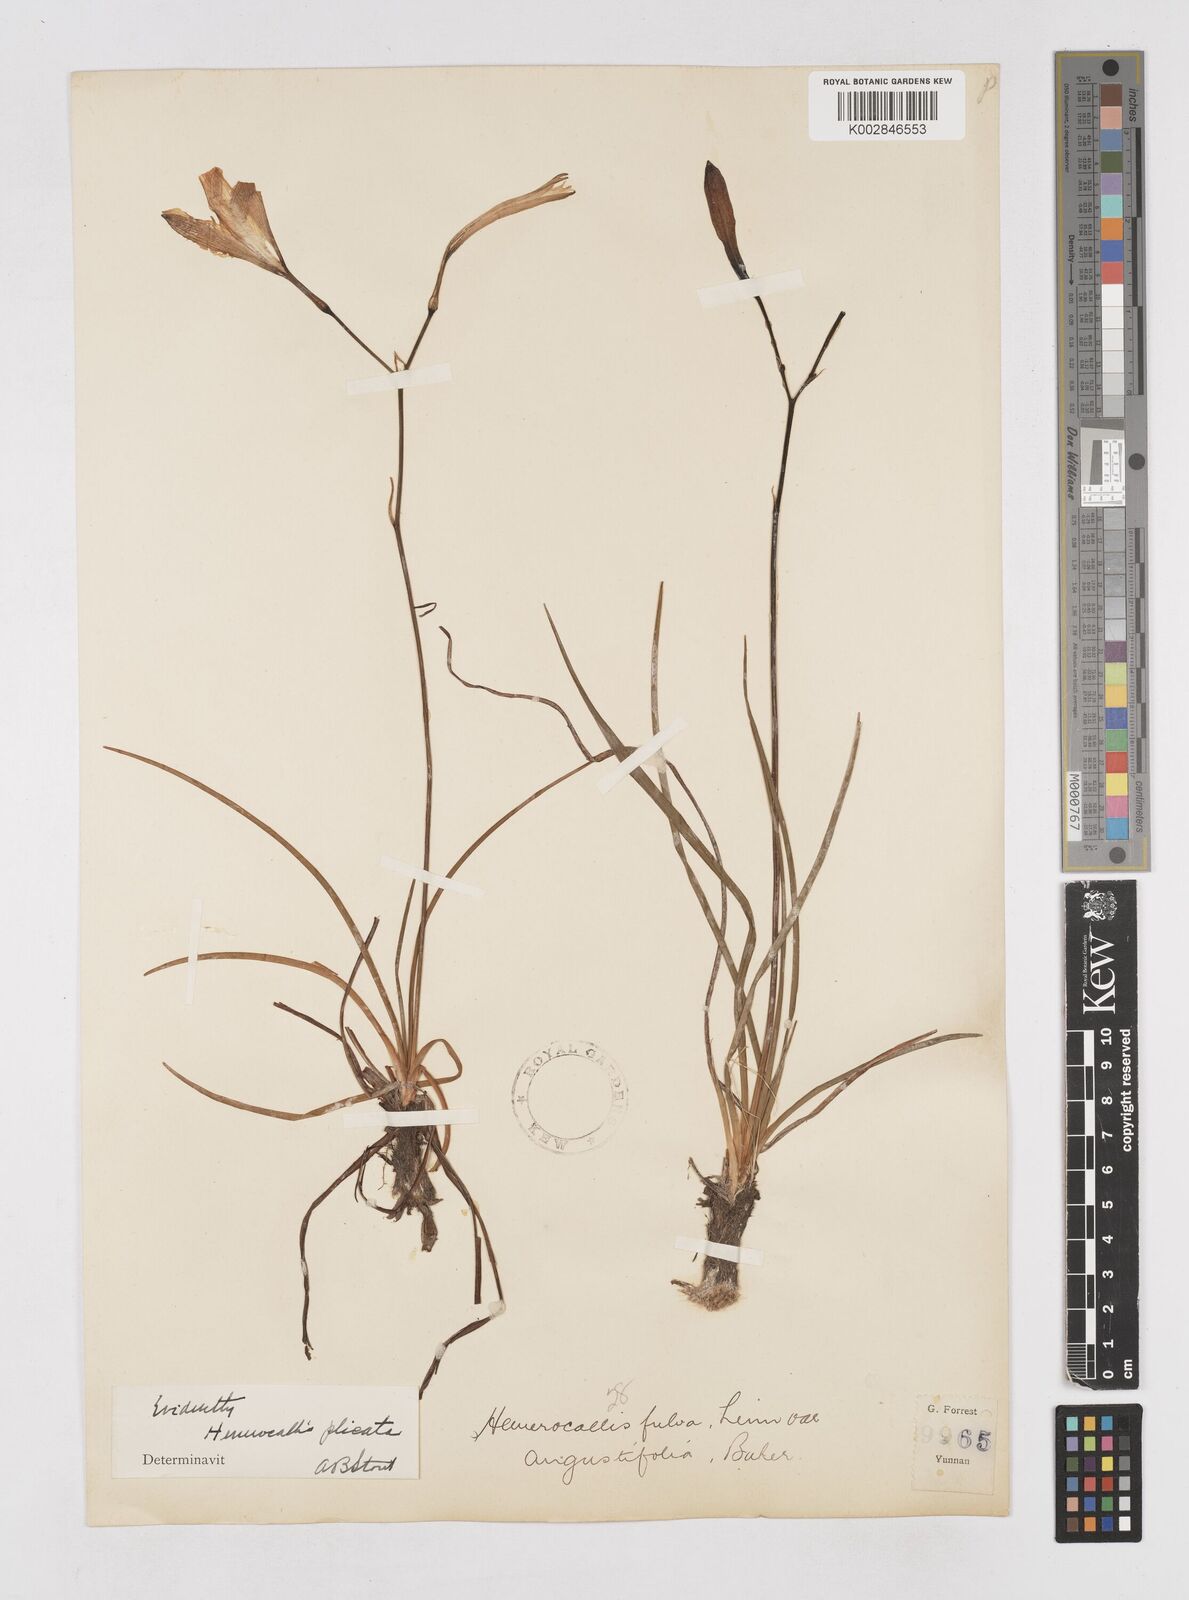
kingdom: Plantae
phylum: Tracheophyta
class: Liliopsida
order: Asparagales
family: Asphodelaceae
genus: Hemerocallis
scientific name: Hemerocallis plicata
